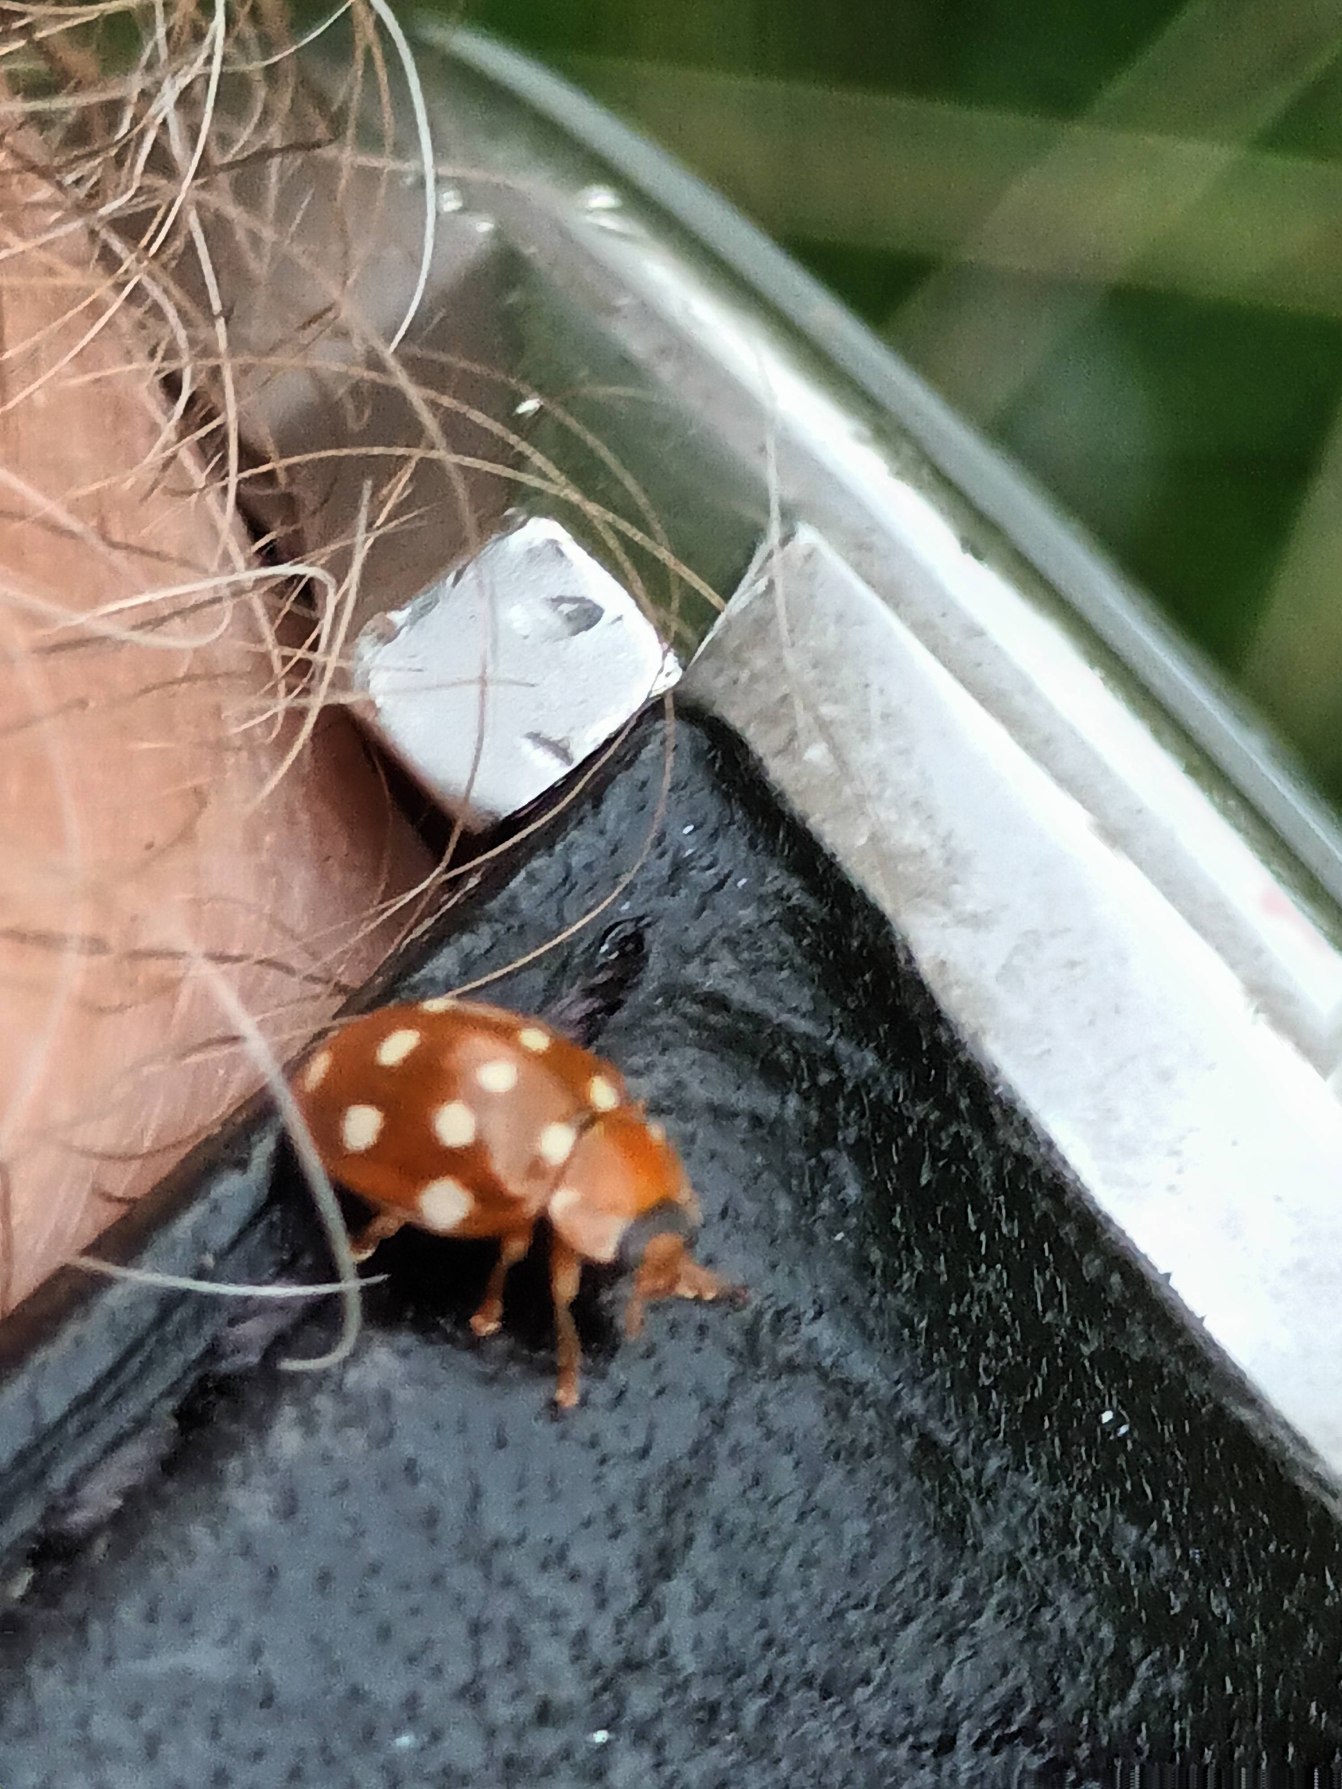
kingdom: Animalia
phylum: Arthropoda
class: Insecta
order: Coleoptera
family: Coccinellidae
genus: Calvia
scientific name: Calvia quatuordecimguttata
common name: Fjortenplettet mariehøne
